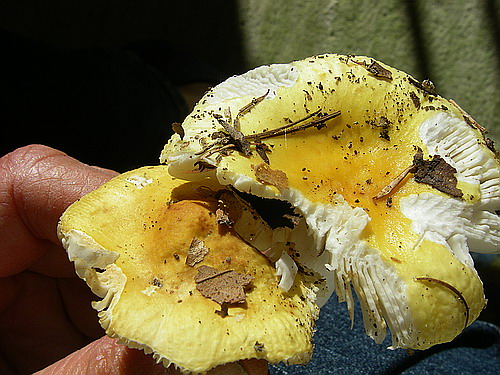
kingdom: Fungi
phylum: Basidiomycota
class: Agaricomycetes
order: Russulales
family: Russulaceae
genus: Russula
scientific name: Russula solaris
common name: sol-skørhat
